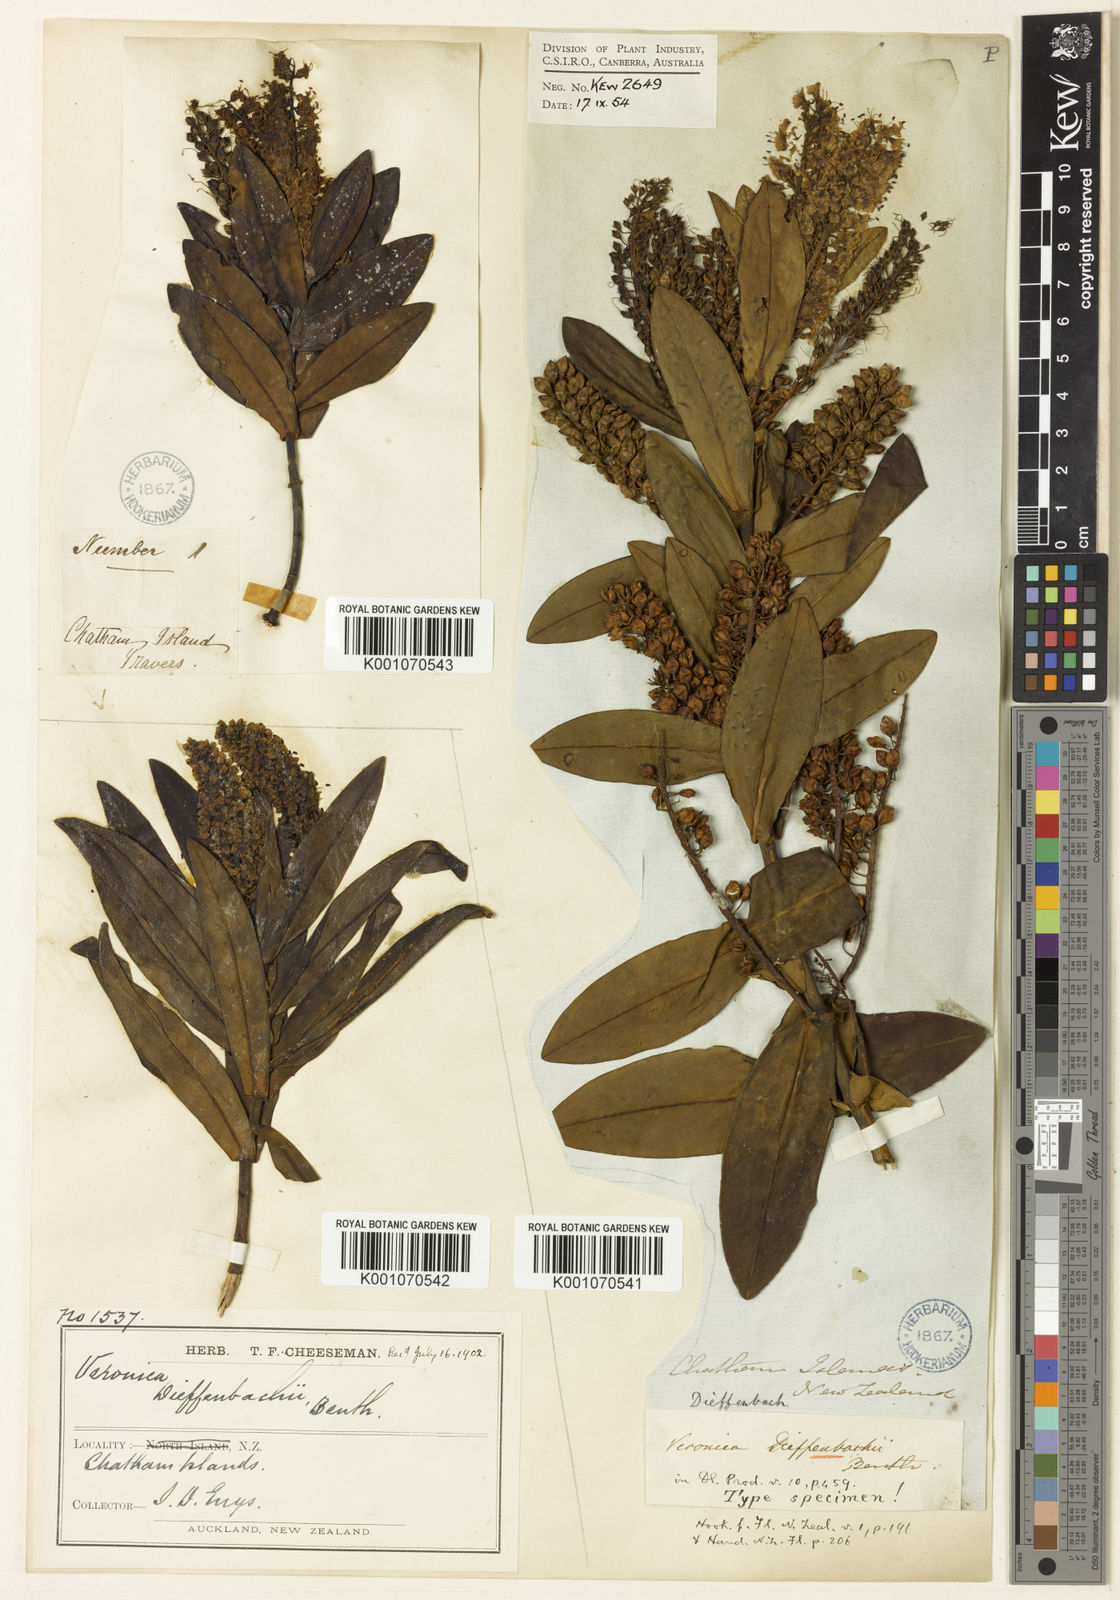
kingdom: Plantae
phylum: Tracheophyta
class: Magnoliopsida
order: Lamiales
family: Plantaginaceae
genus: Veronica
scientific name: Veronica dieffenbachii
